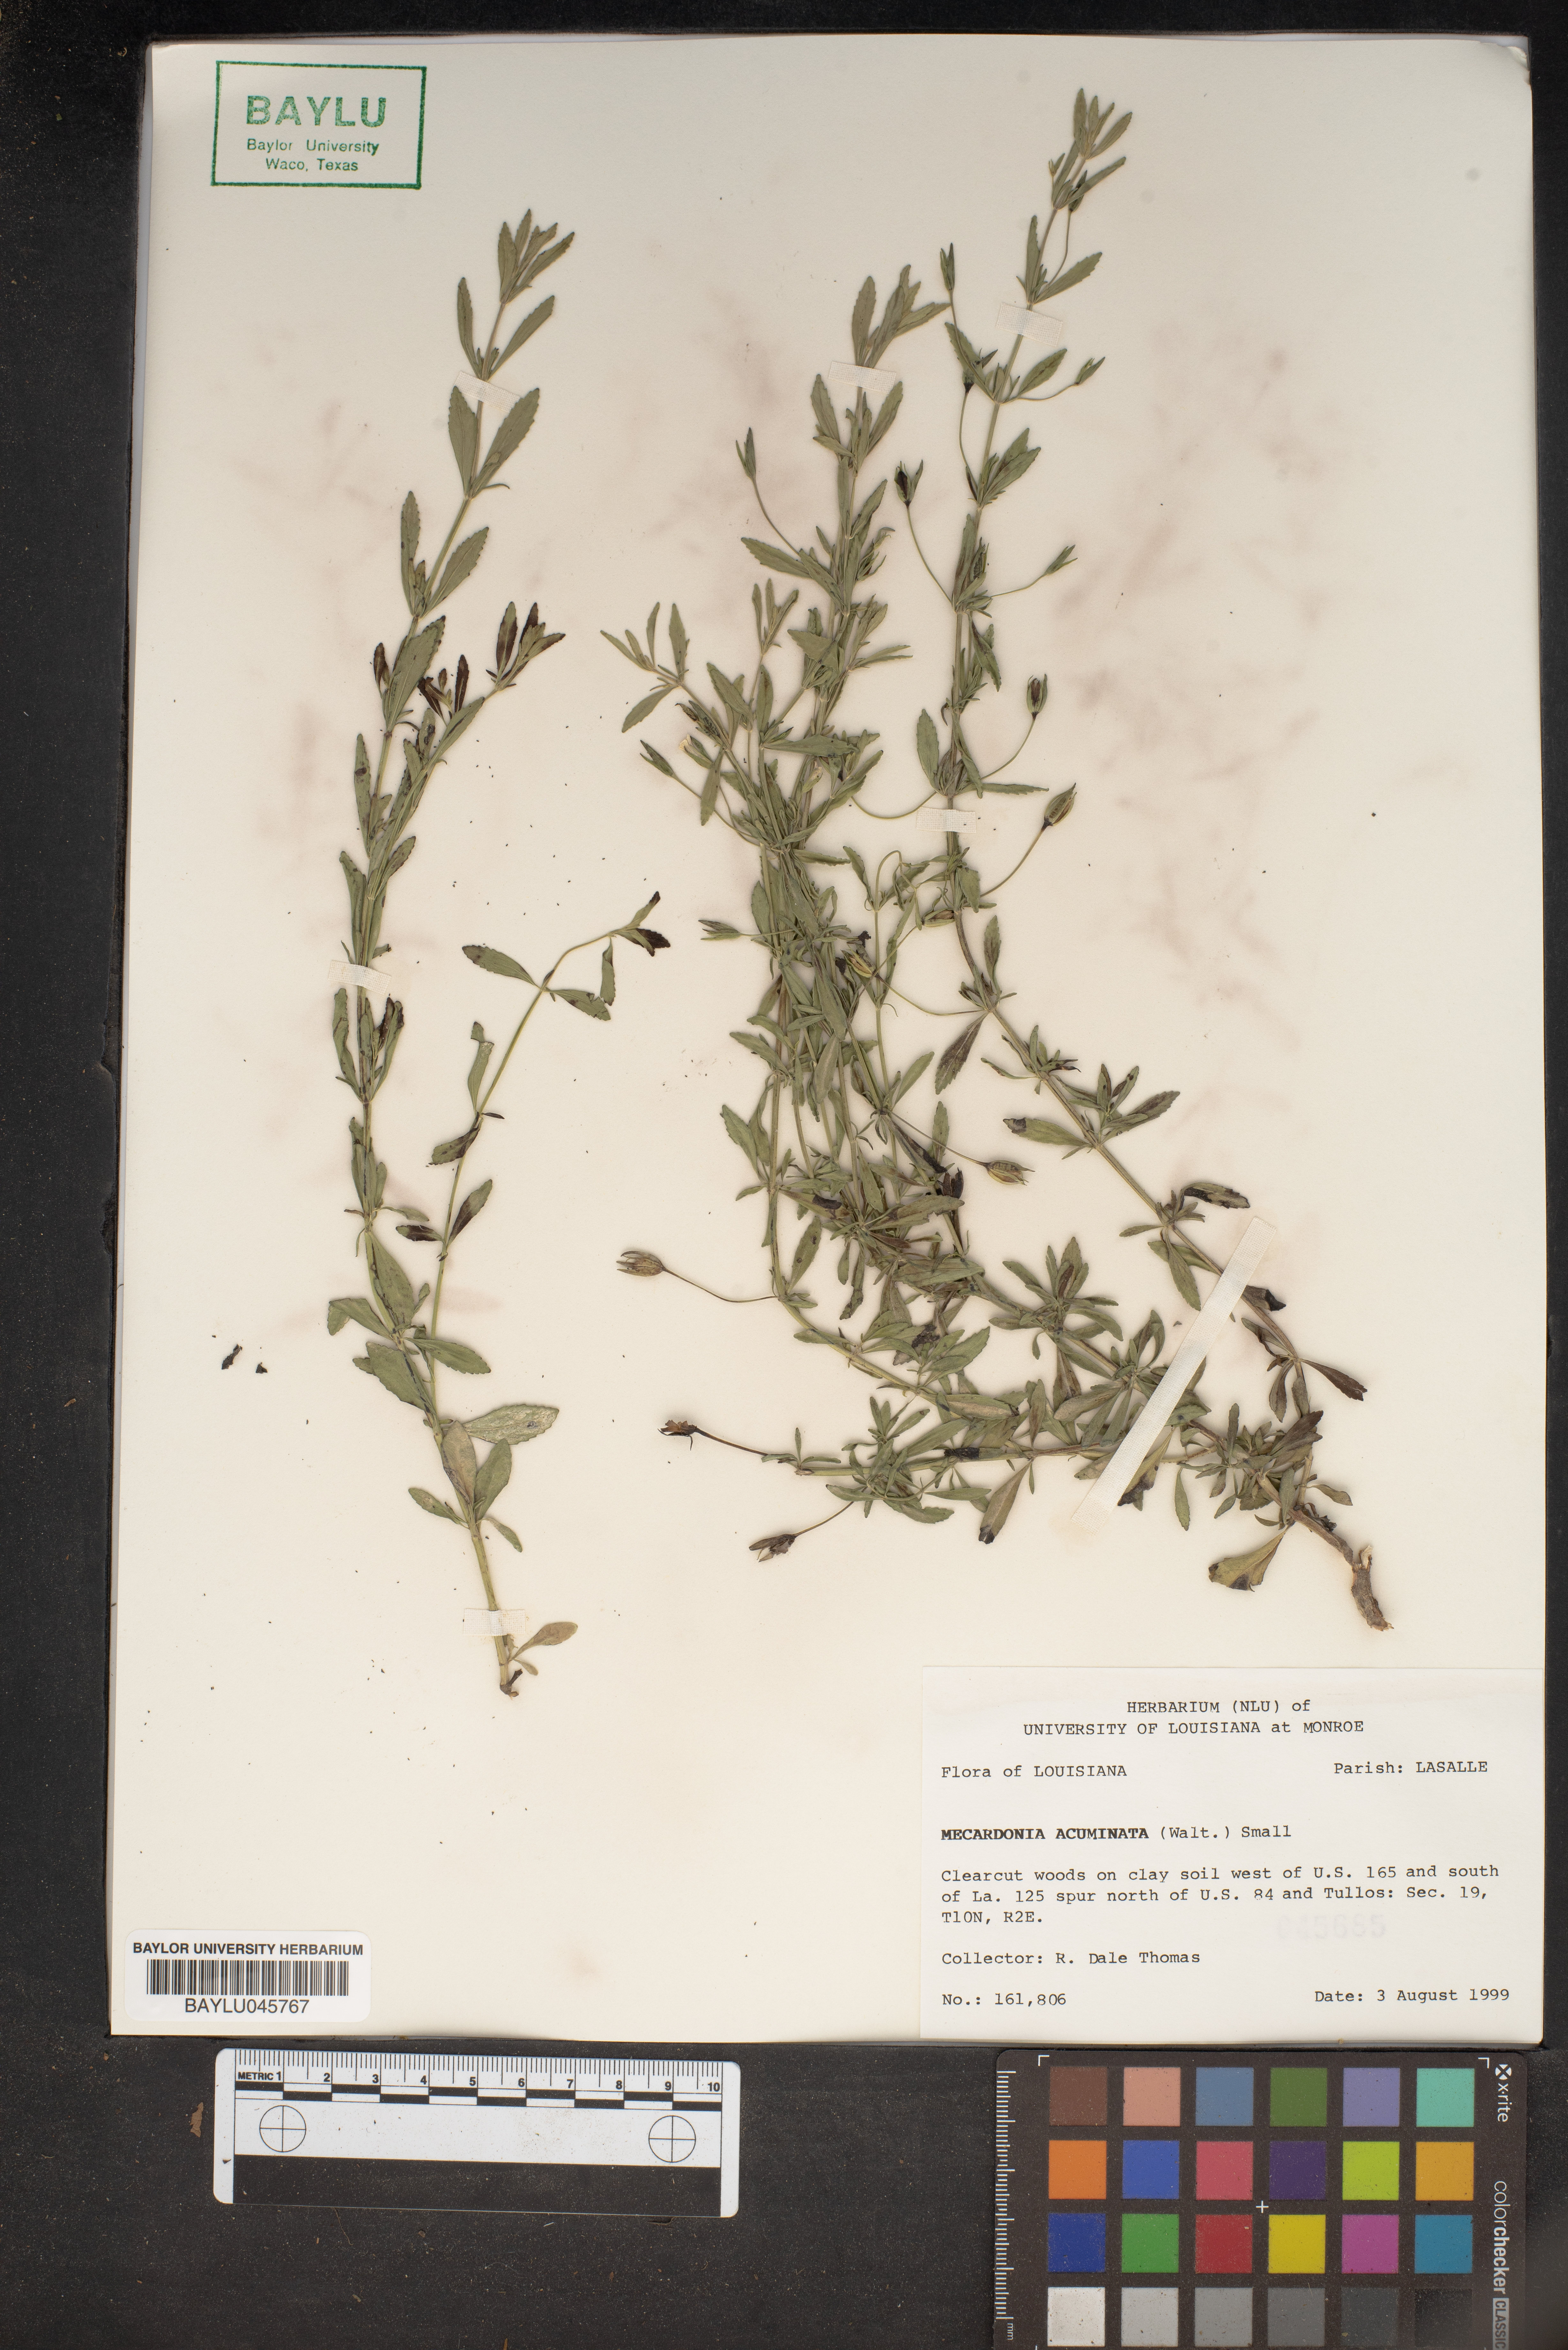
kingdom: Plantae
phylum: Tracheophyta
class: Magnoliopsida
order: Lamiales
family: Plantaginaceae
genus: Mecardonia
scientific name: Mecardonia acuminata
